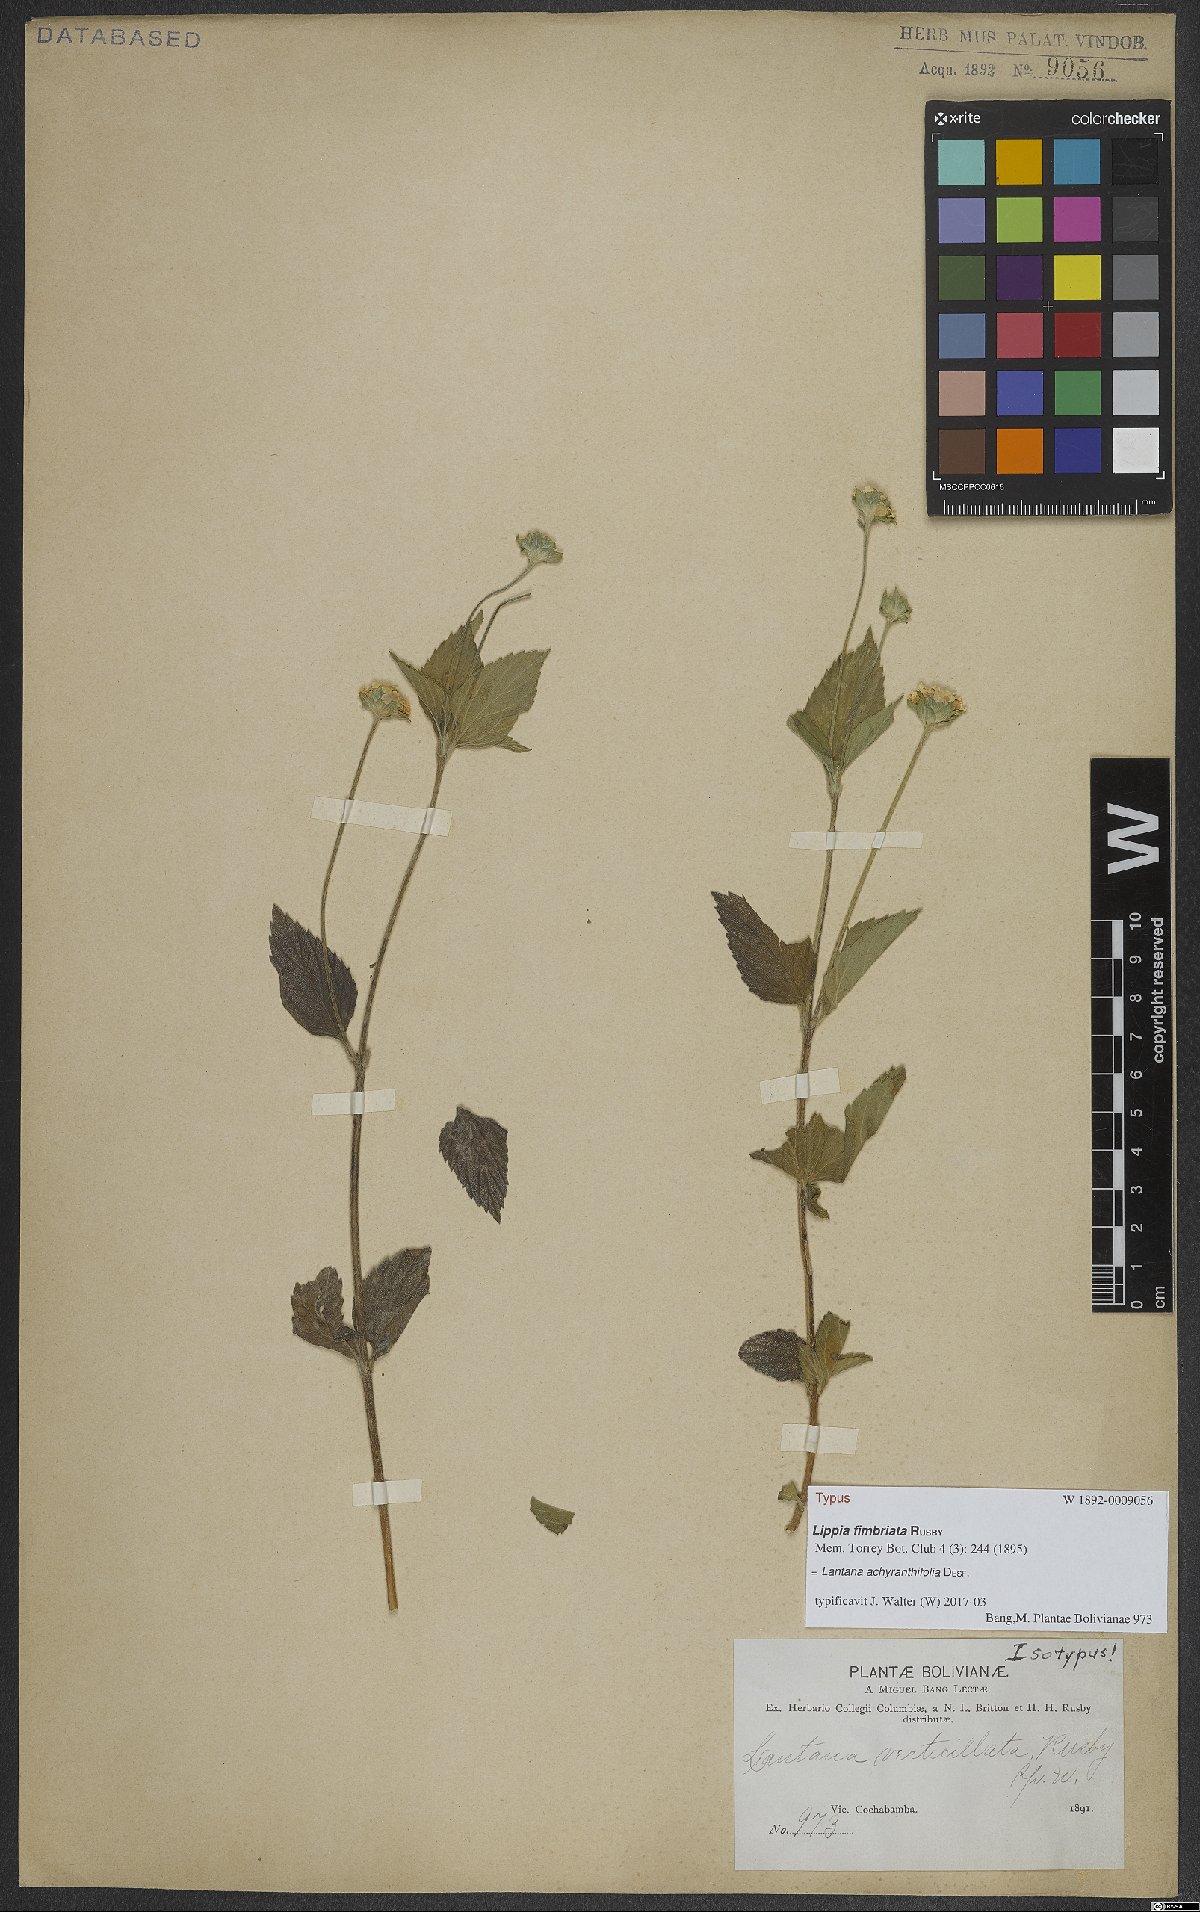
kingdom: Plantae
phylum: Tracheophyta
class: Magnoliopsida
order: Lamiales
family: Verbenaceae
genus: Lantana
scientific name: Lantana achyranthifolia
